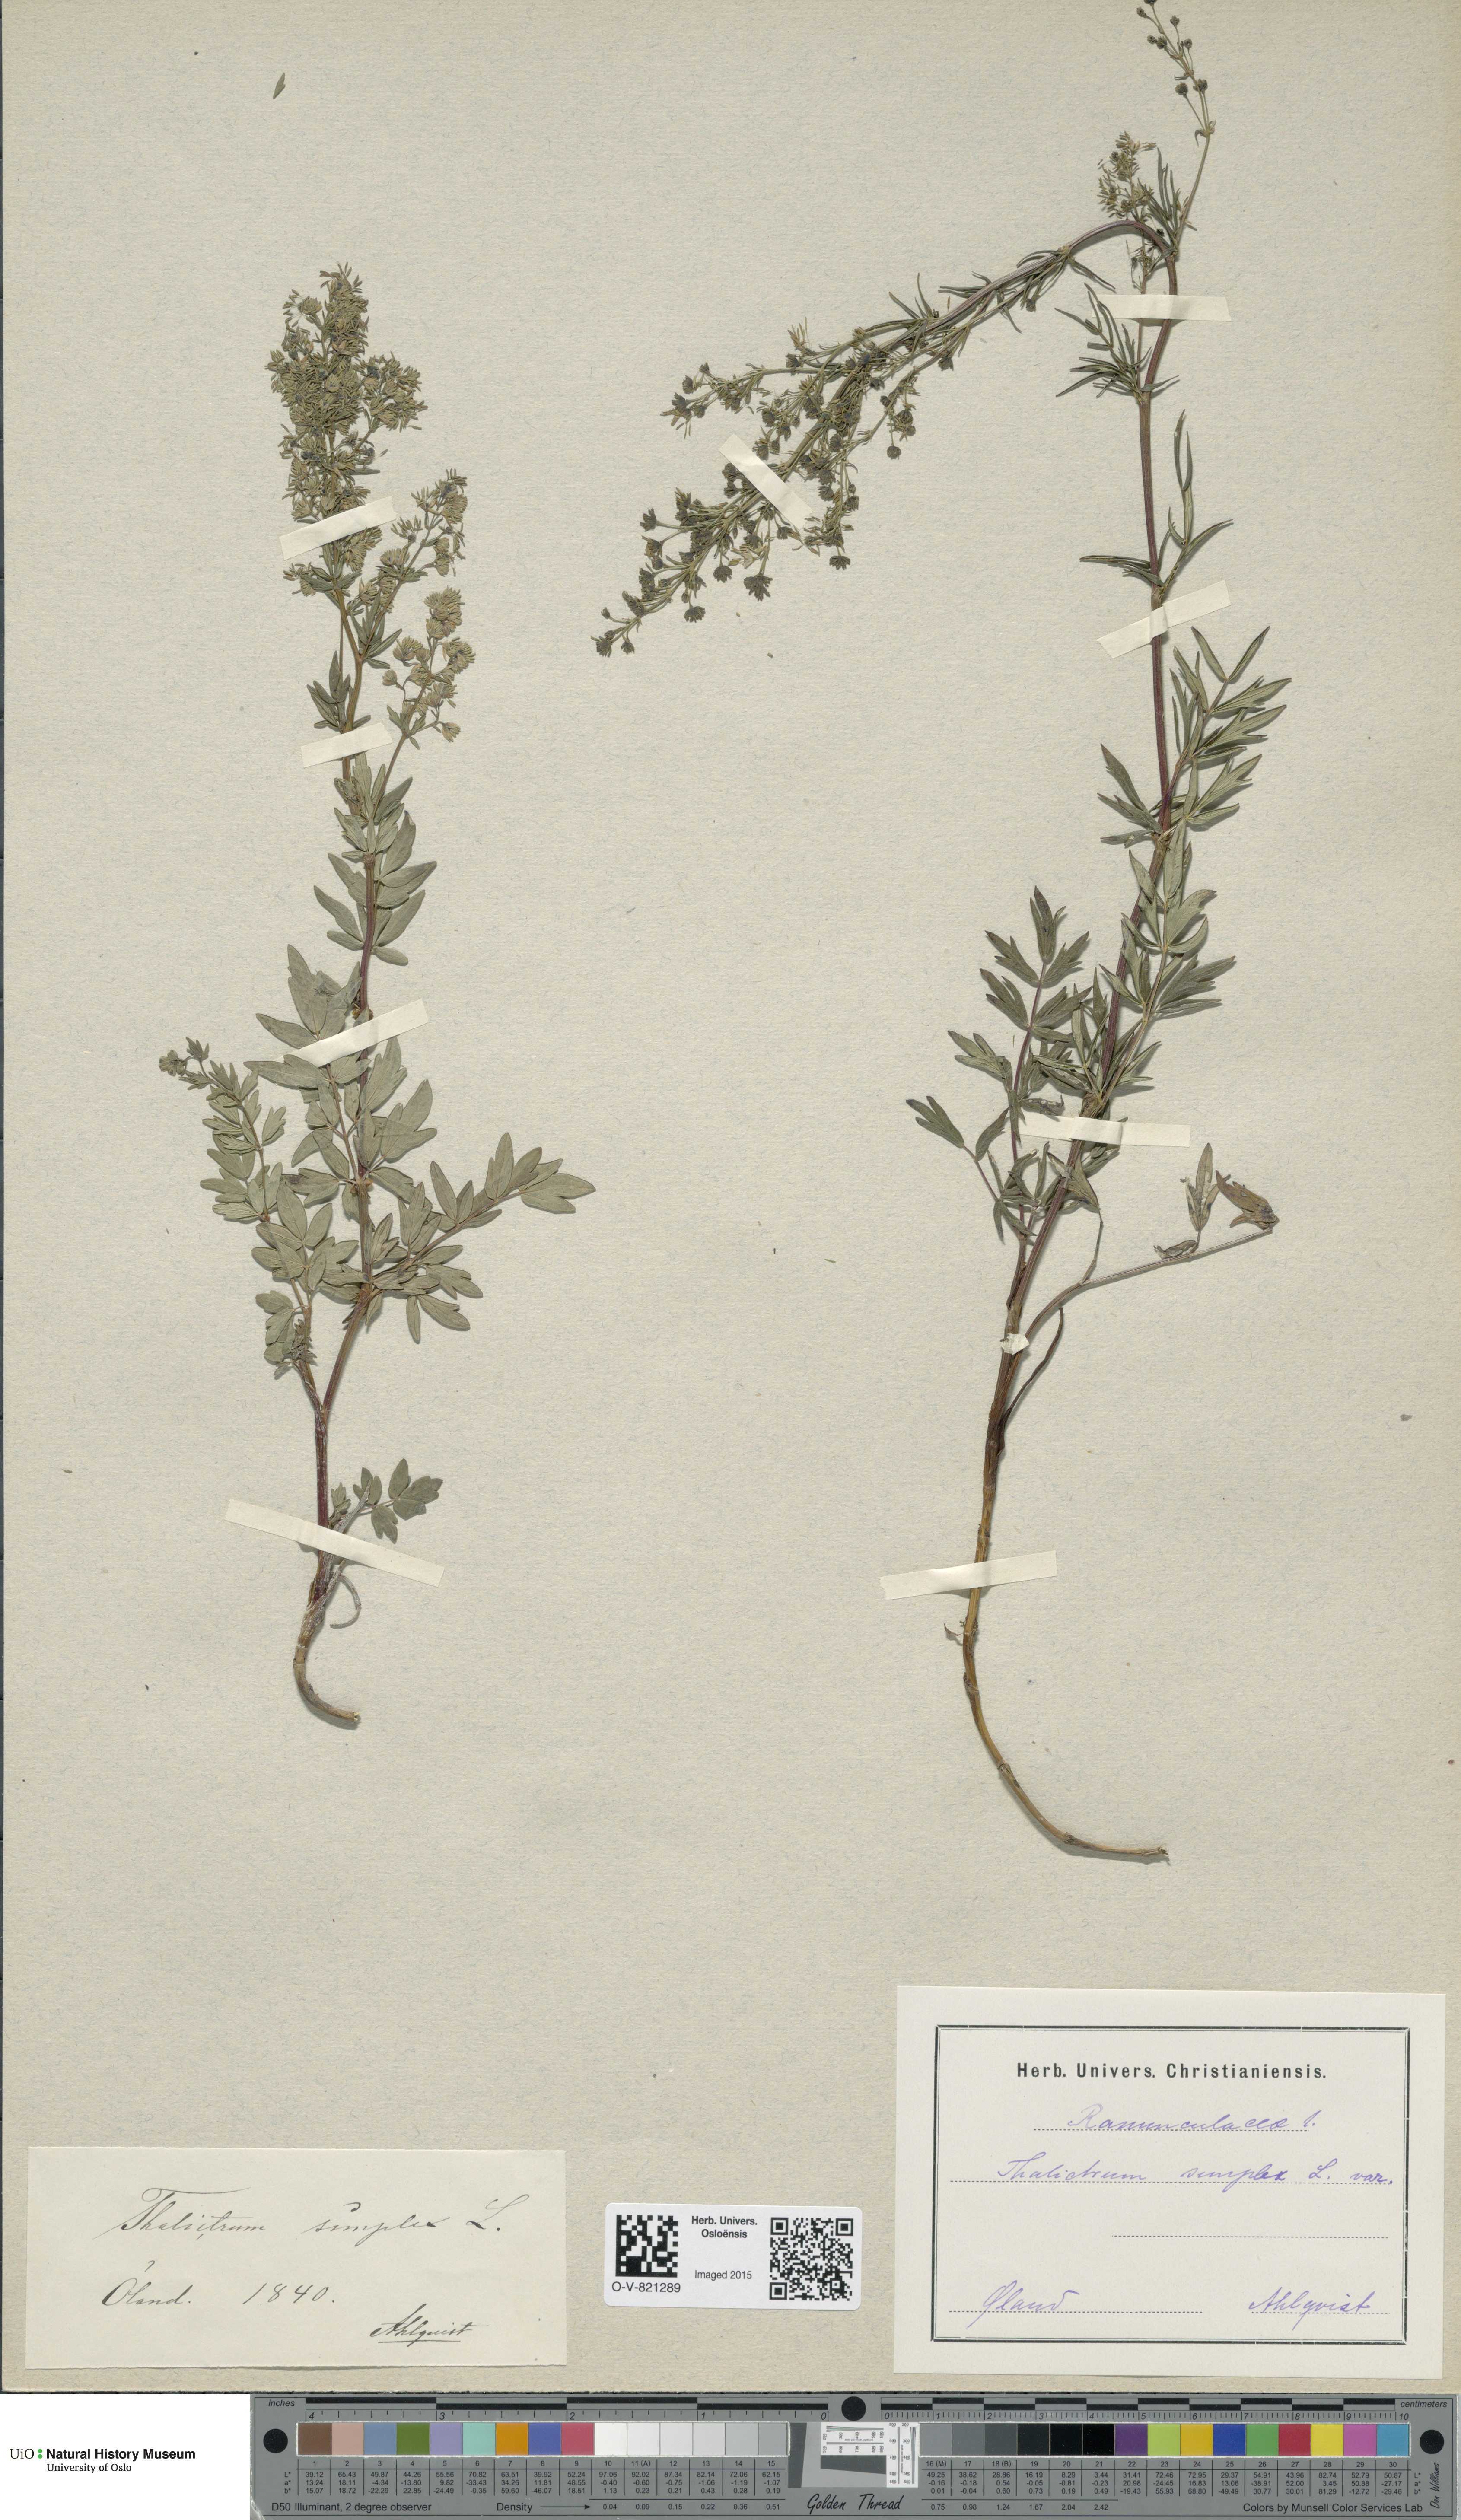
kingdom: Plantae
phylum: Tracheophyta
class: Magnoliopsida
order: Ranunculales
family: Ranunculaceae
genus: Thalictrum
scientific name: Thalictrum simplex
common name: Small meadow-rue
